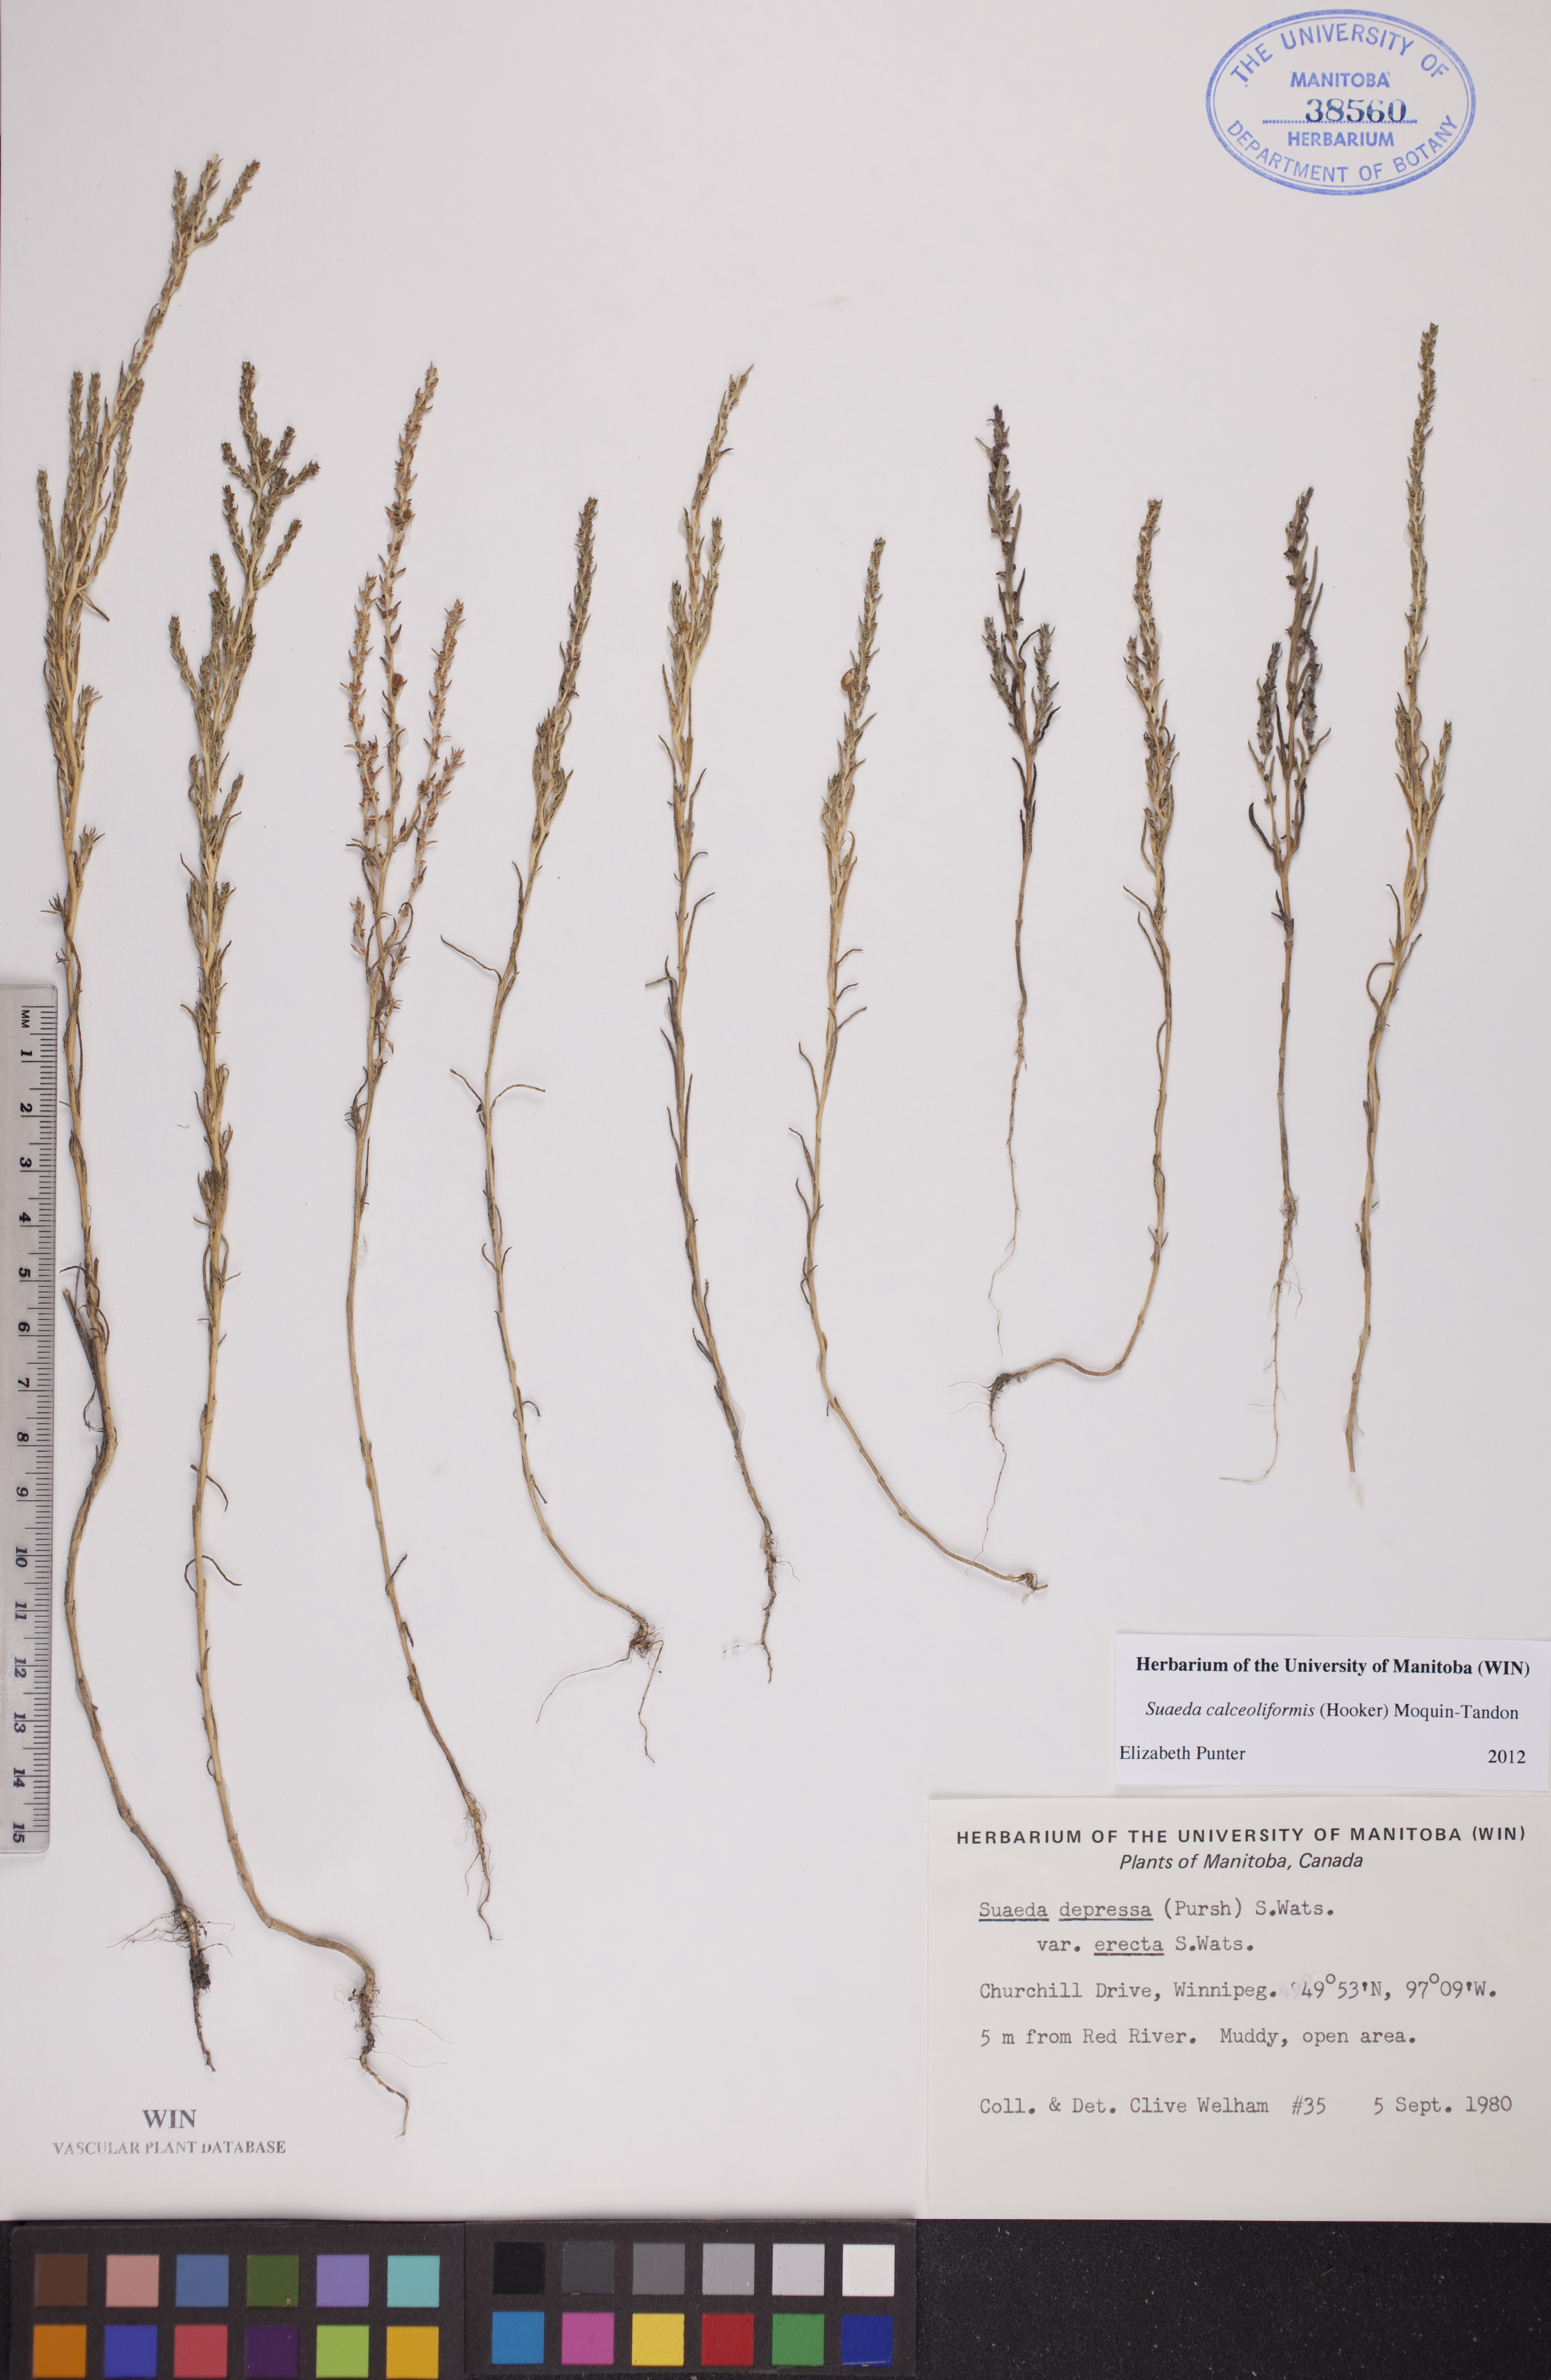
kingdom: Plantae
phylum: Tracheophyta
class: Magnoliopsida
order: Caryophyllales
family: Amaranthaceae
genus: Suaeda
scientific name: Suaeda calceoliformis
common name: Pursh's seepweed
